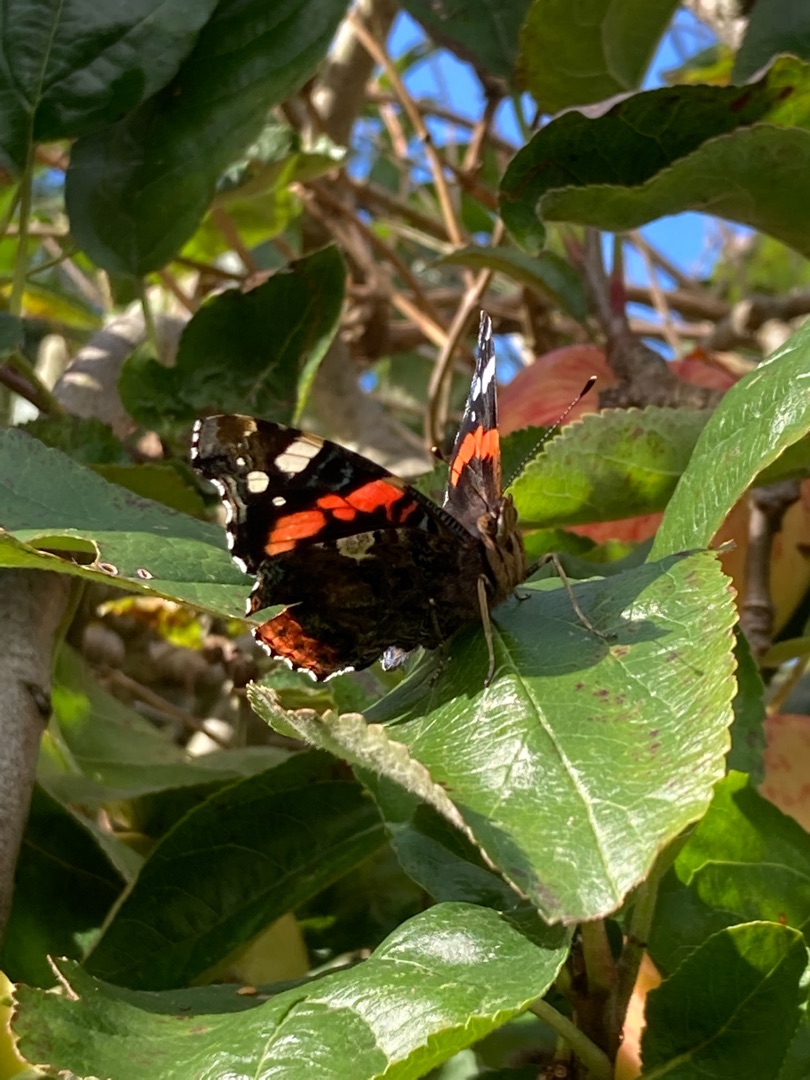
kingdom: Animalia
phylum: Arthropoda
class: Insecta
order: Lepidoptera
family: Nymphalidae
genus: Vanessa
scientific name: Vanessa atalanta
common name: Admiral
